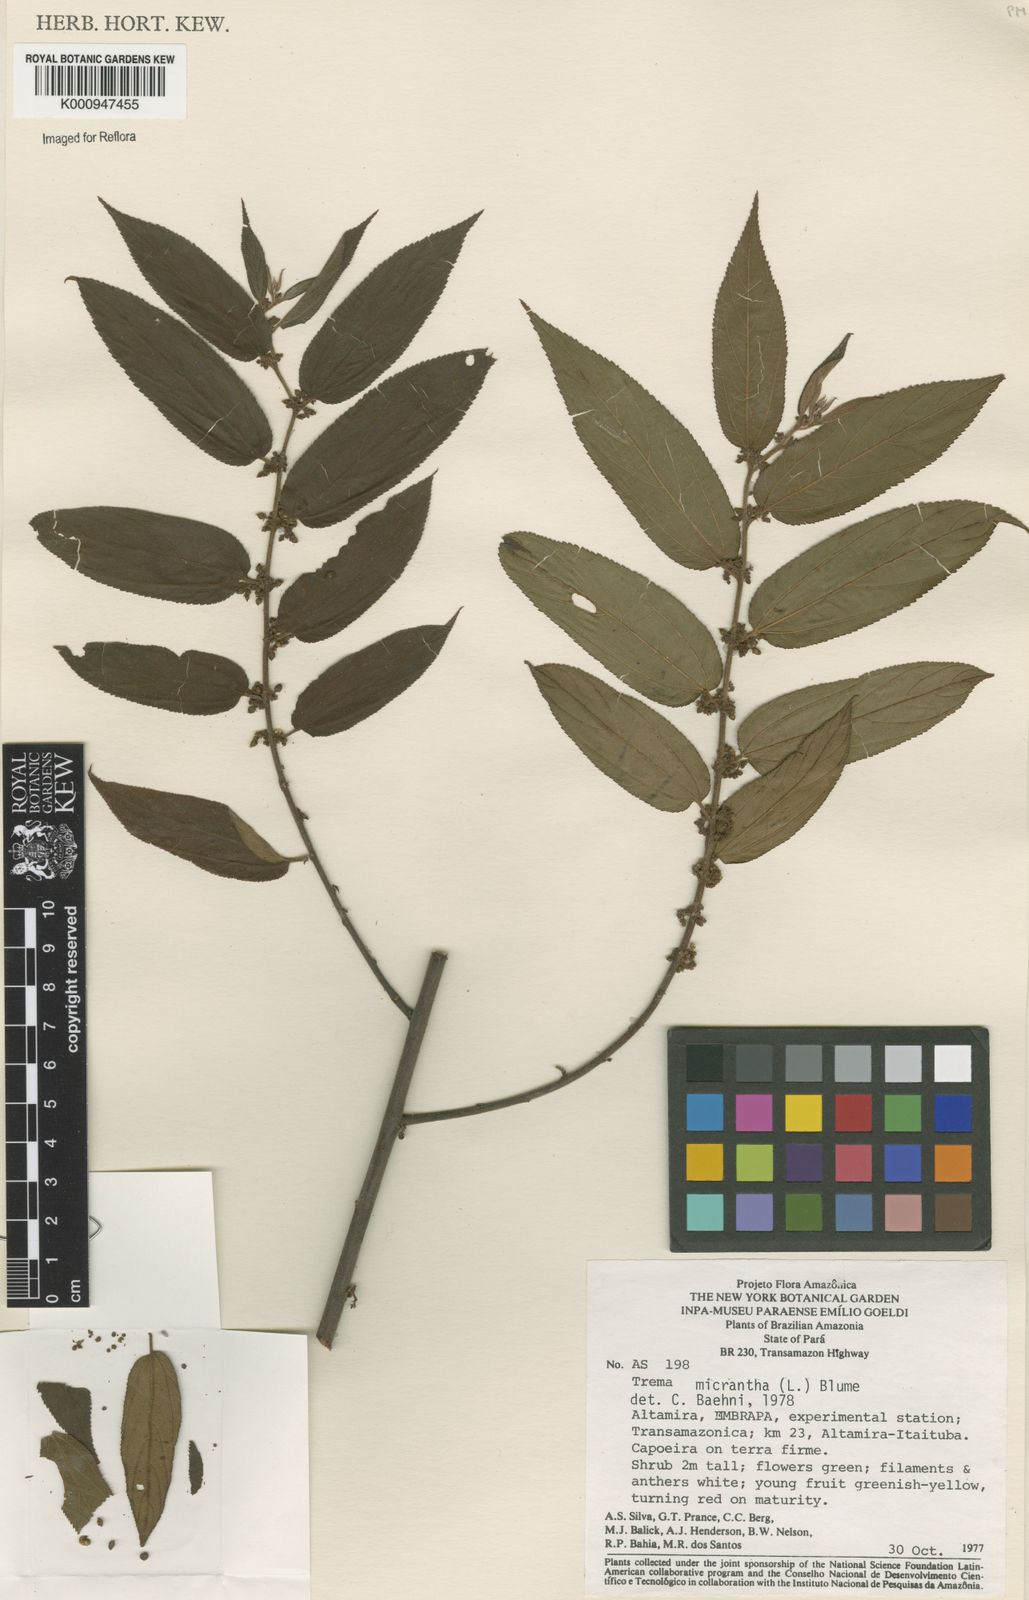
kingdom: Plantae
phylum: Tracheophyta
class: Magnoliopsida
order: Rosales
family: Cannabaceae
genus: Trema
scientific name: Trema micranthum
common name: Jamaican nettletree
